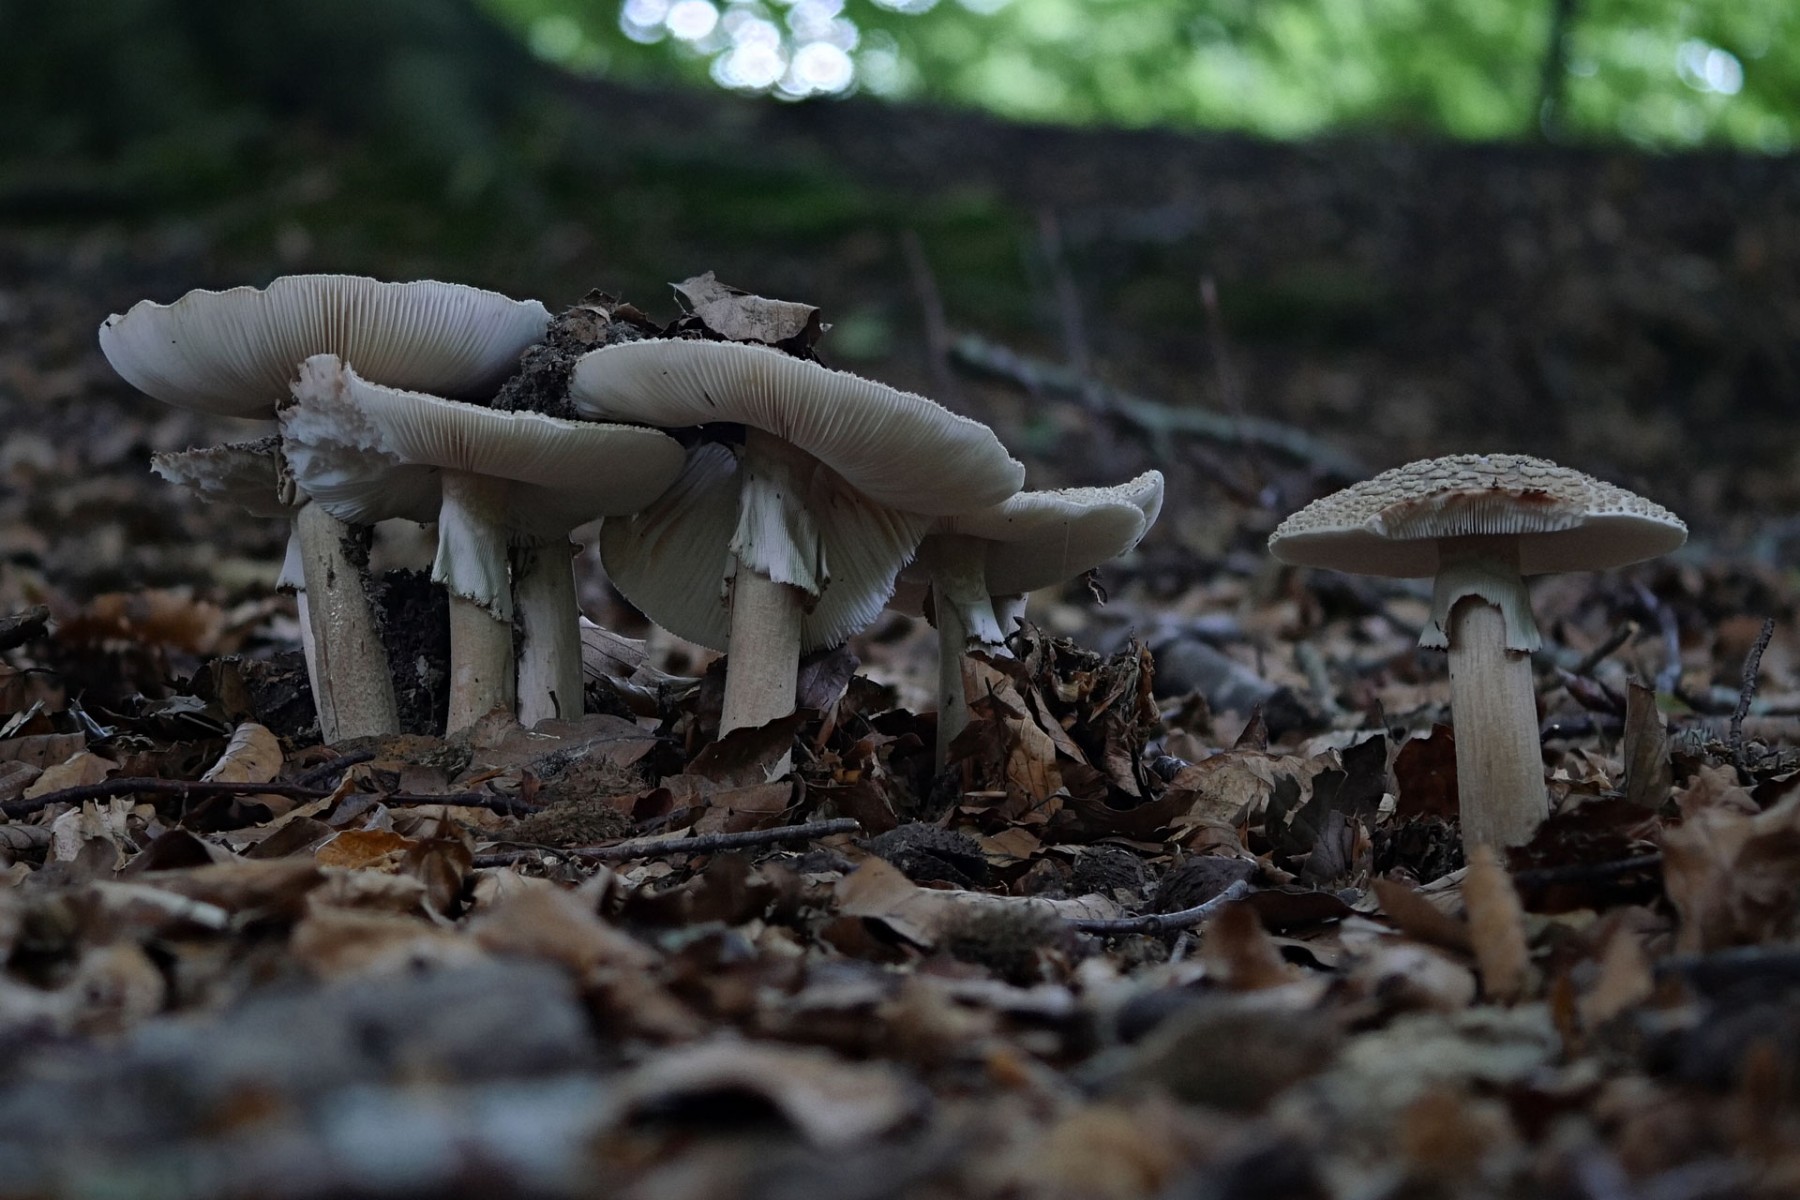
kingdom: Fungi
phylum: Basidiomycota
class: Agaricomycetes
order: Agaricales
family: Amanitaceae
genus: Amanita
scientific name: Amanita rubescens
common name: rødmende fluesvamp
